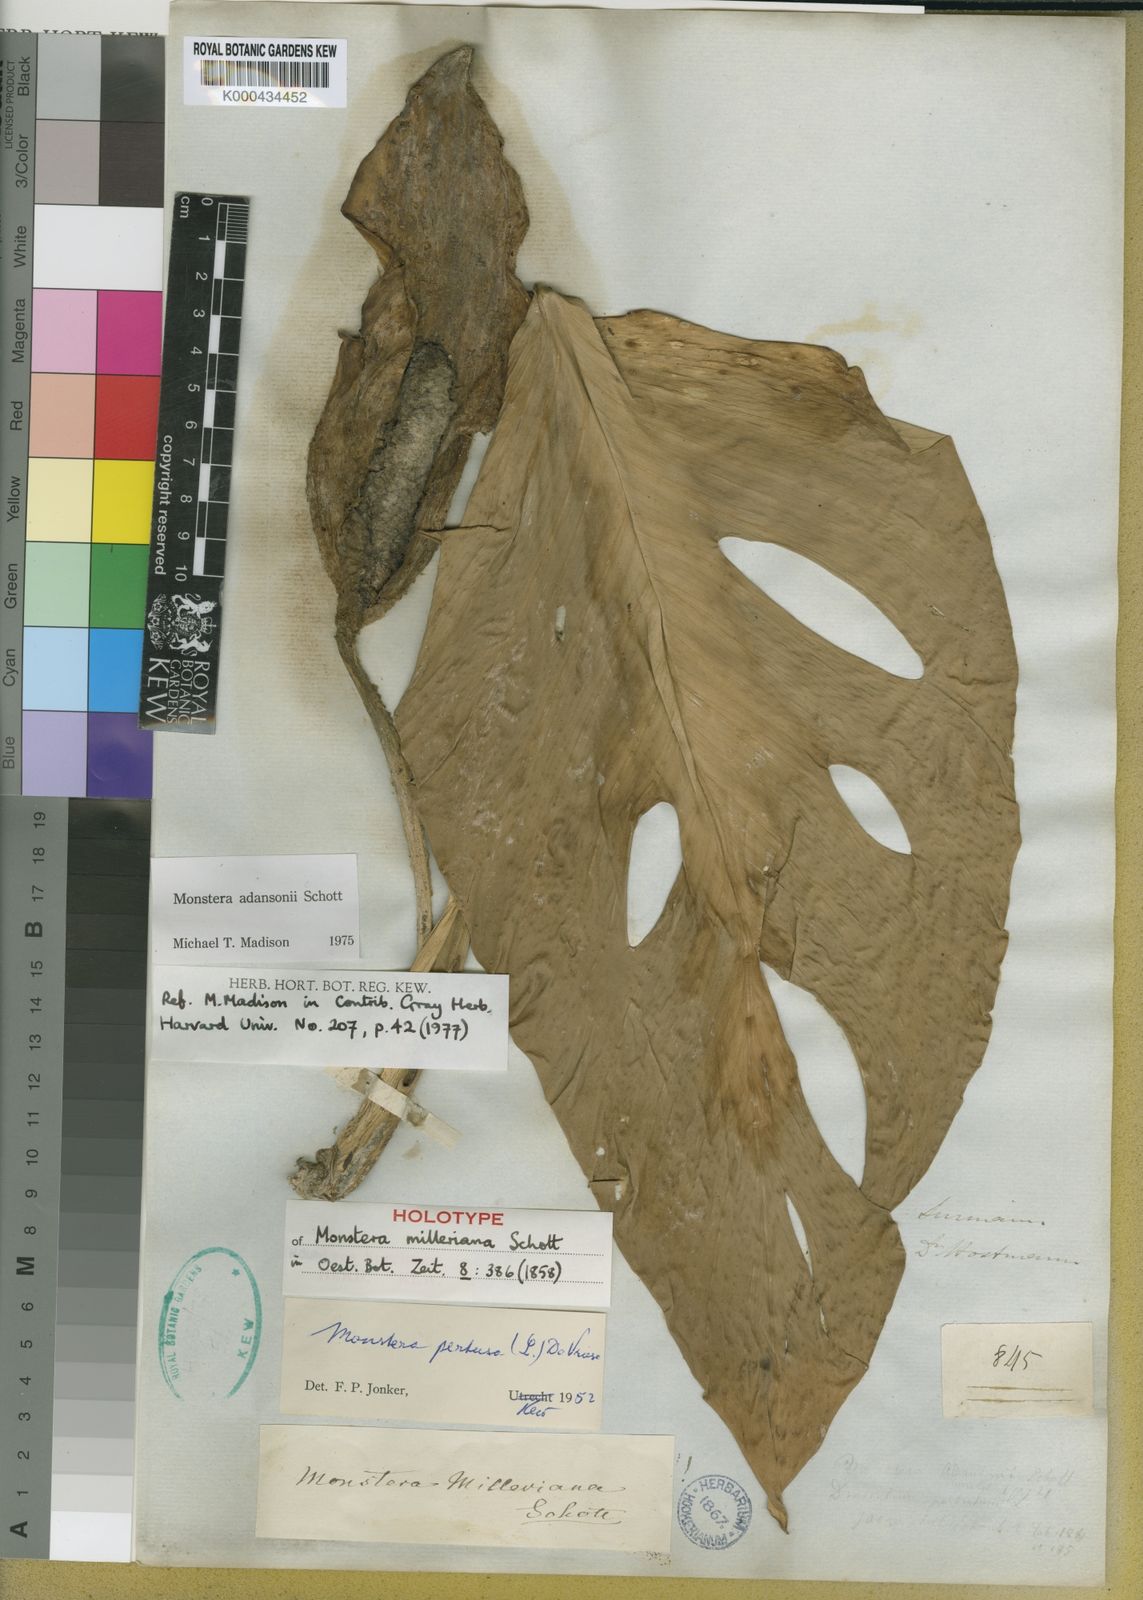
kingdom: Plantae
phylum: Tracheophyta
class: Liliopsida
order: Alismatales
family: Araceae
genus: Monstera
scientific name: Monstera adansonii
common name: Tarovine
